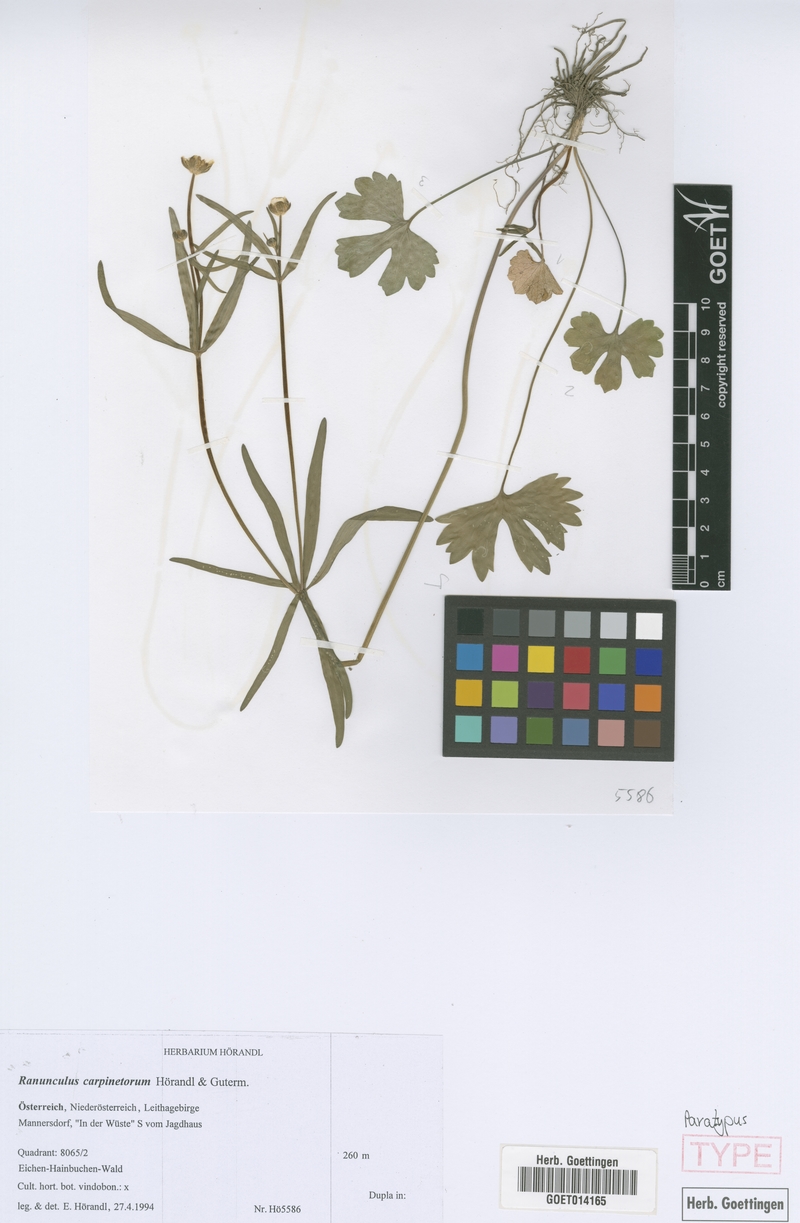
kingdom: Plantae
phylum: Tracheophyta
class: Magnoliopsida
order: Ranunculales
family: Ranunculaceae
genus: Ranunculus
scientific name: Ranunculus carpinetorum
